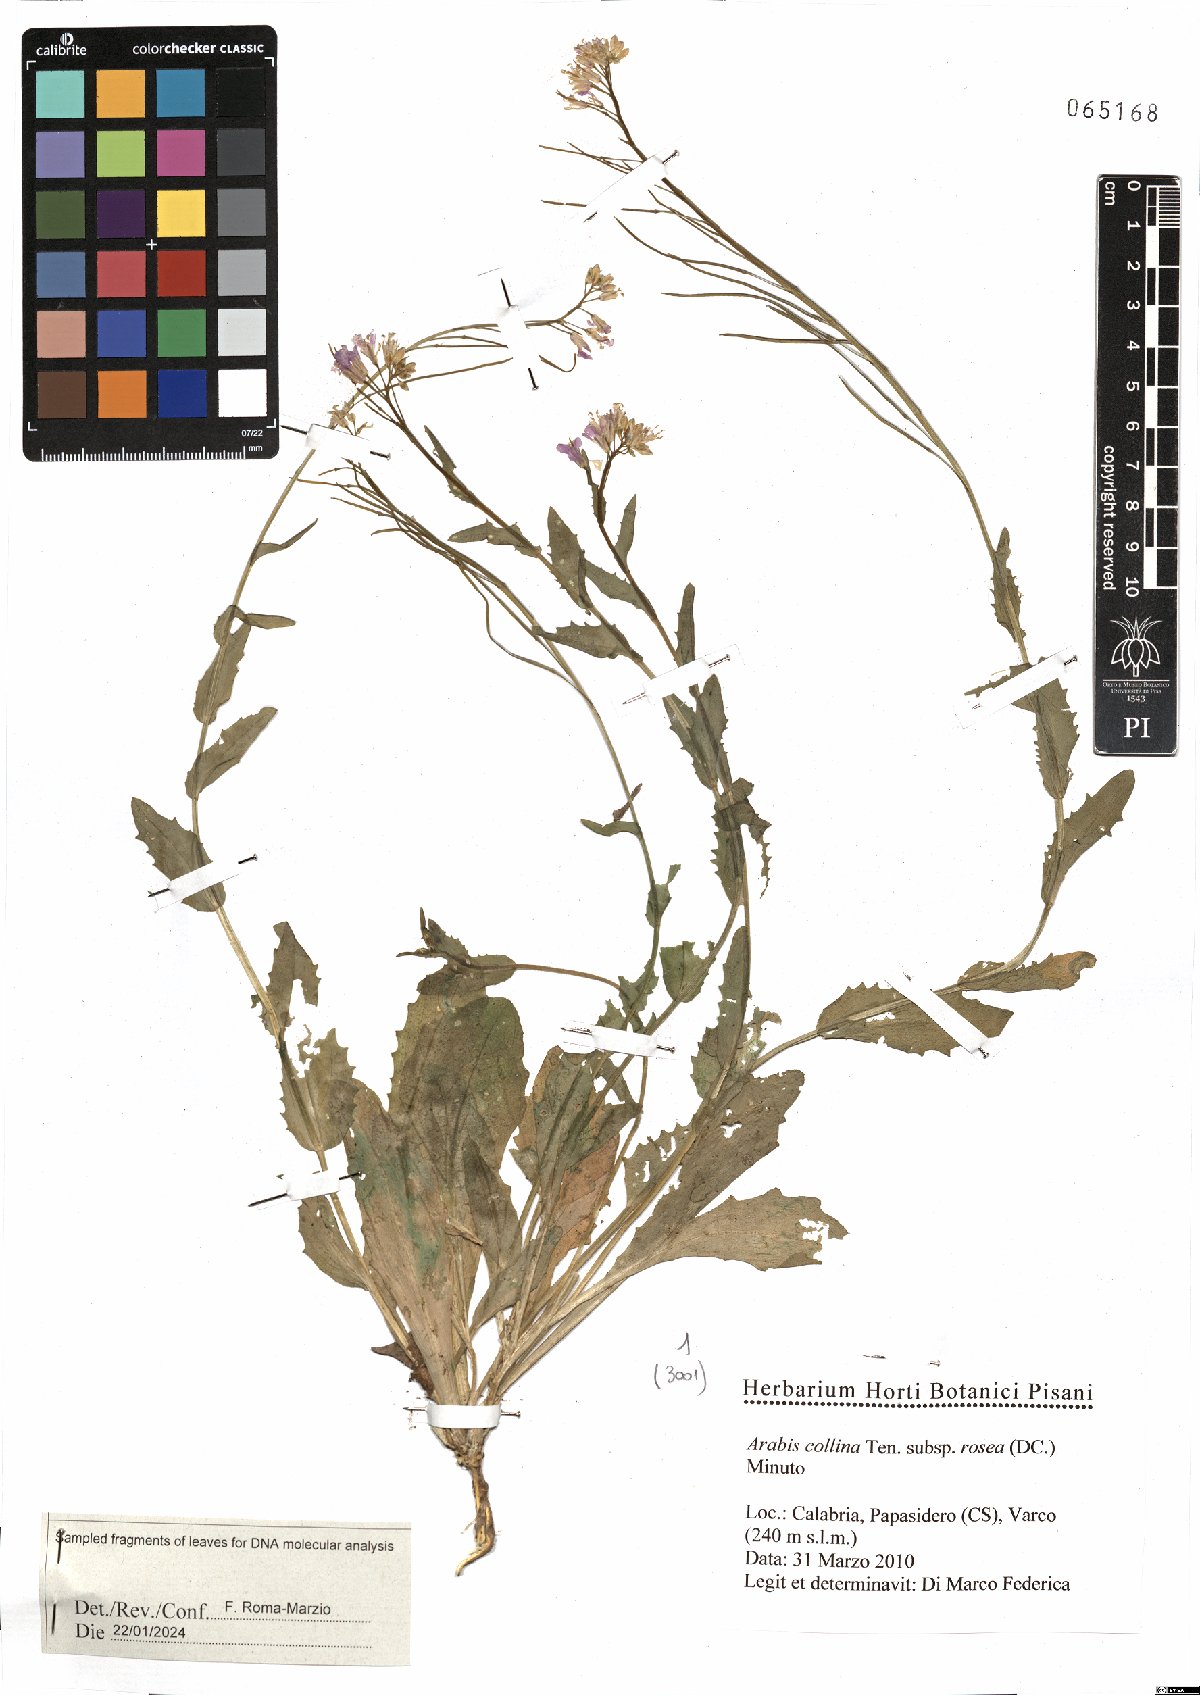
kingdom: Plantae
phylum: Tracheophyta
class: Magnoliopsida
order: Brassicales
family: Brassicaceae
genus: Arabis
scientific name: Arabis collina
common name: Rosy cress
